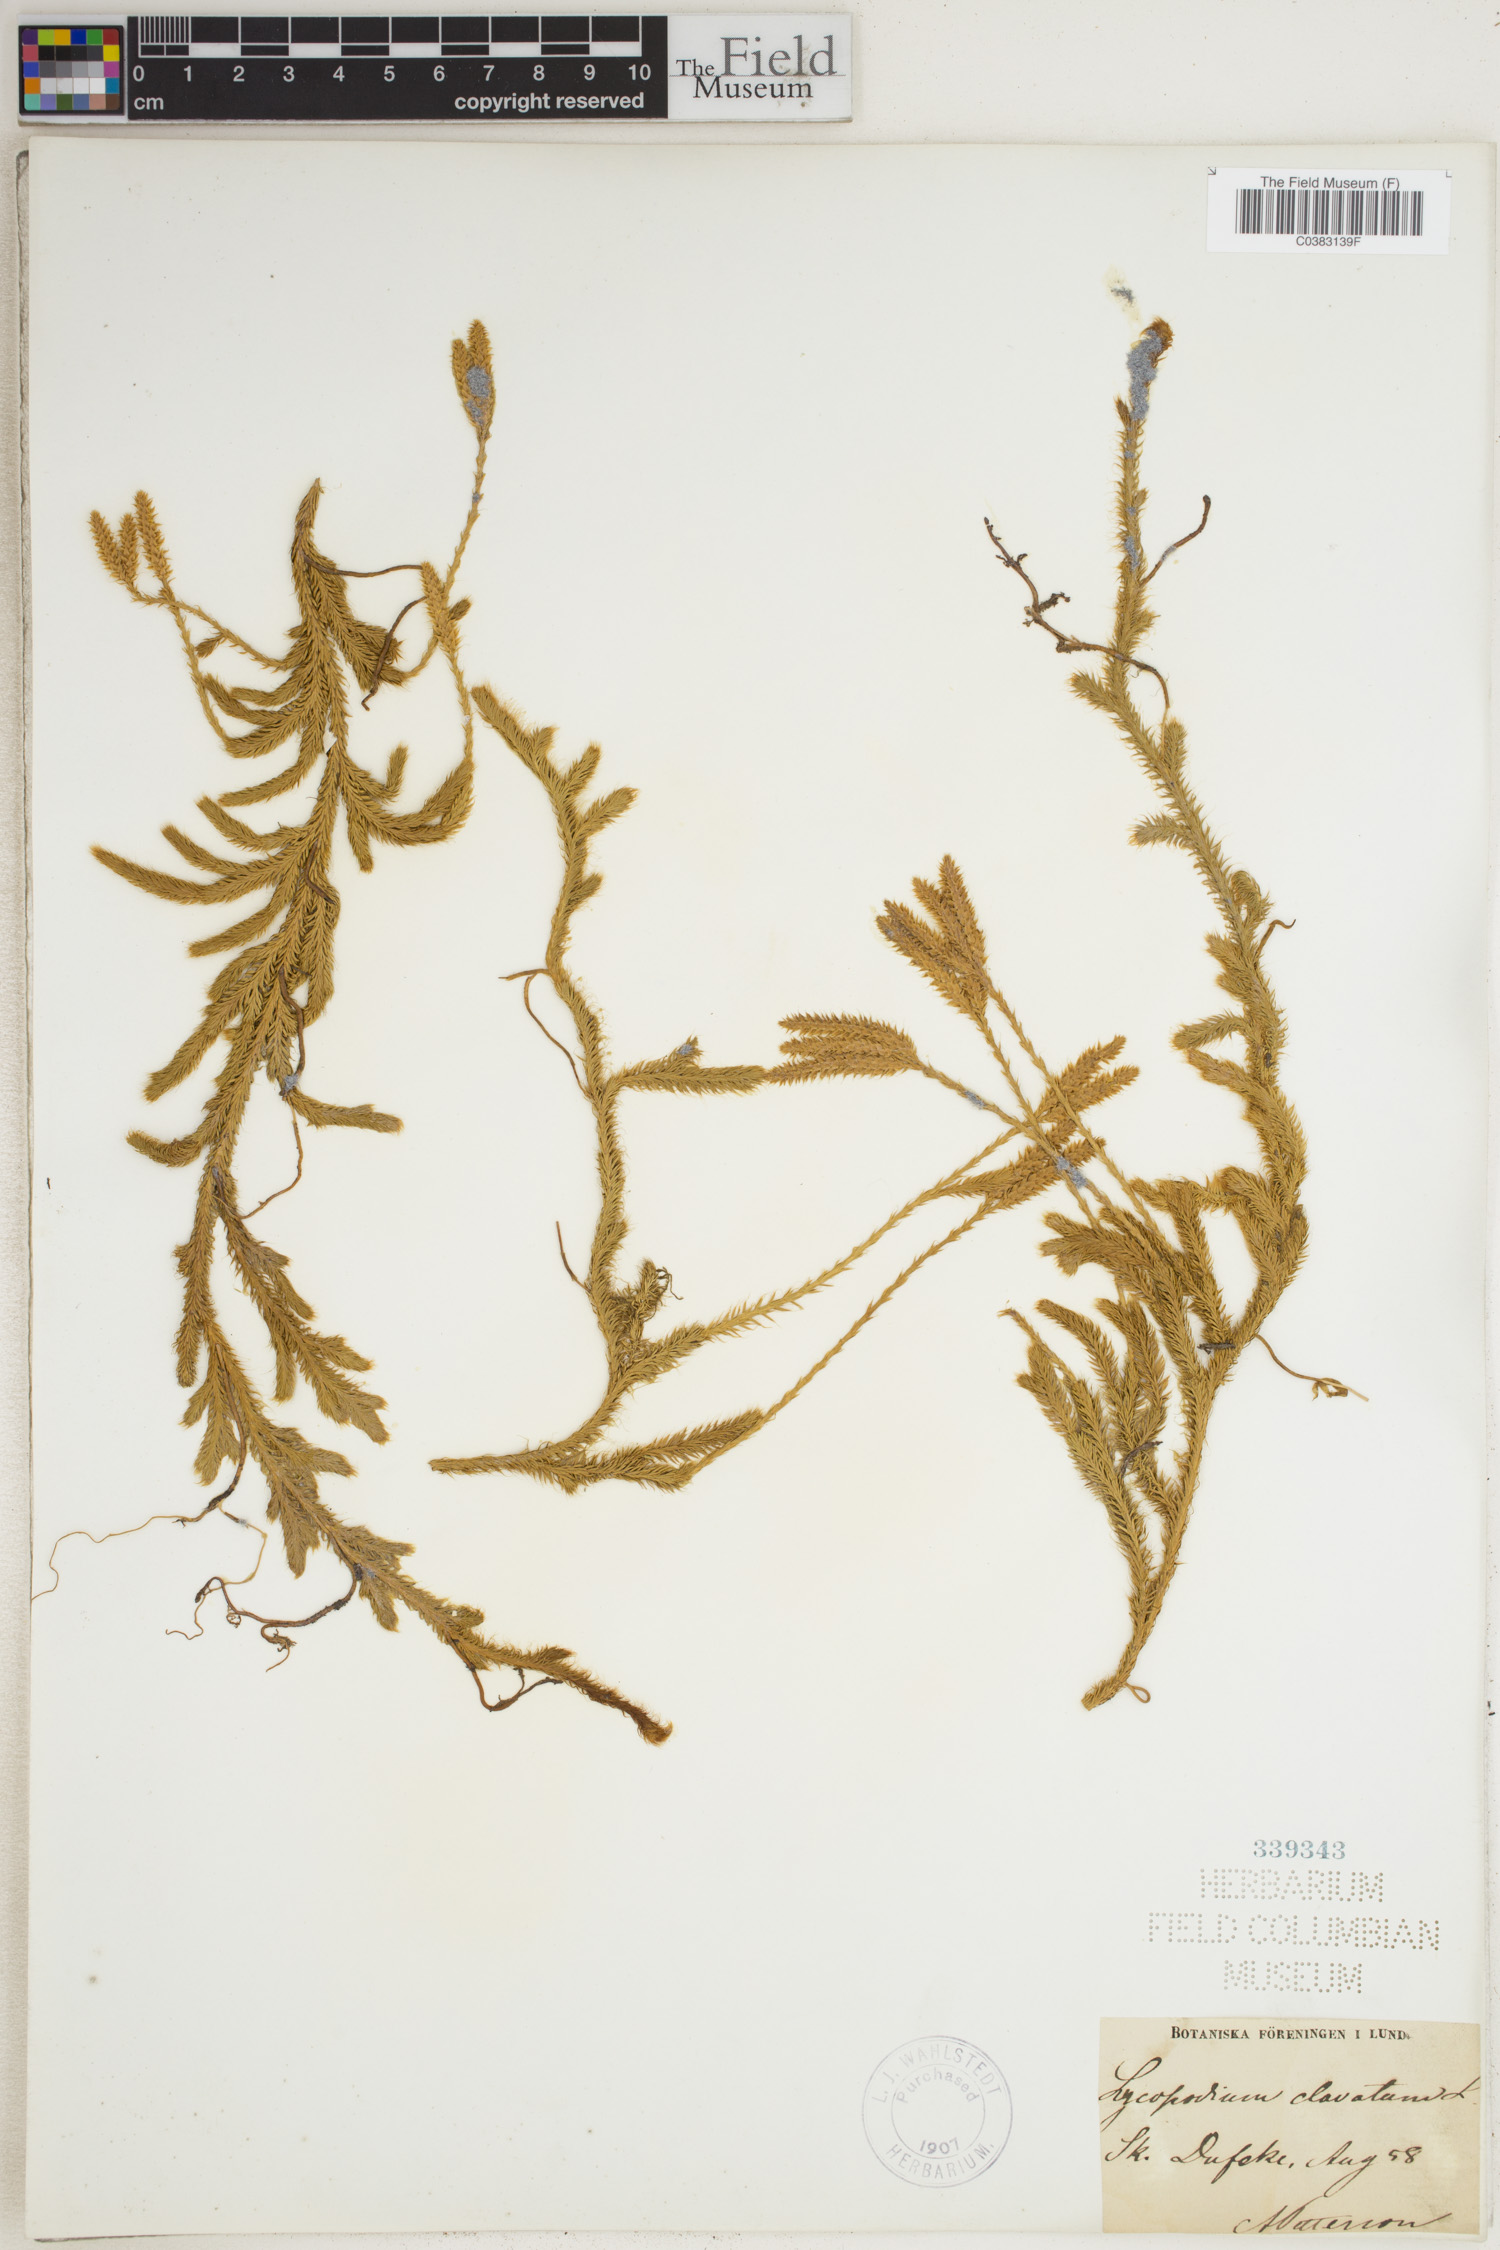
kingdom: Plantae
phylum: Tracheophyta
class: Lycopodiopsida
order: Lycopodiales
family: Lycopodiaceae
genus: Lycopodium
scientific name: Lycopodium clavatum
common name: Stag's-horn clubmoss
